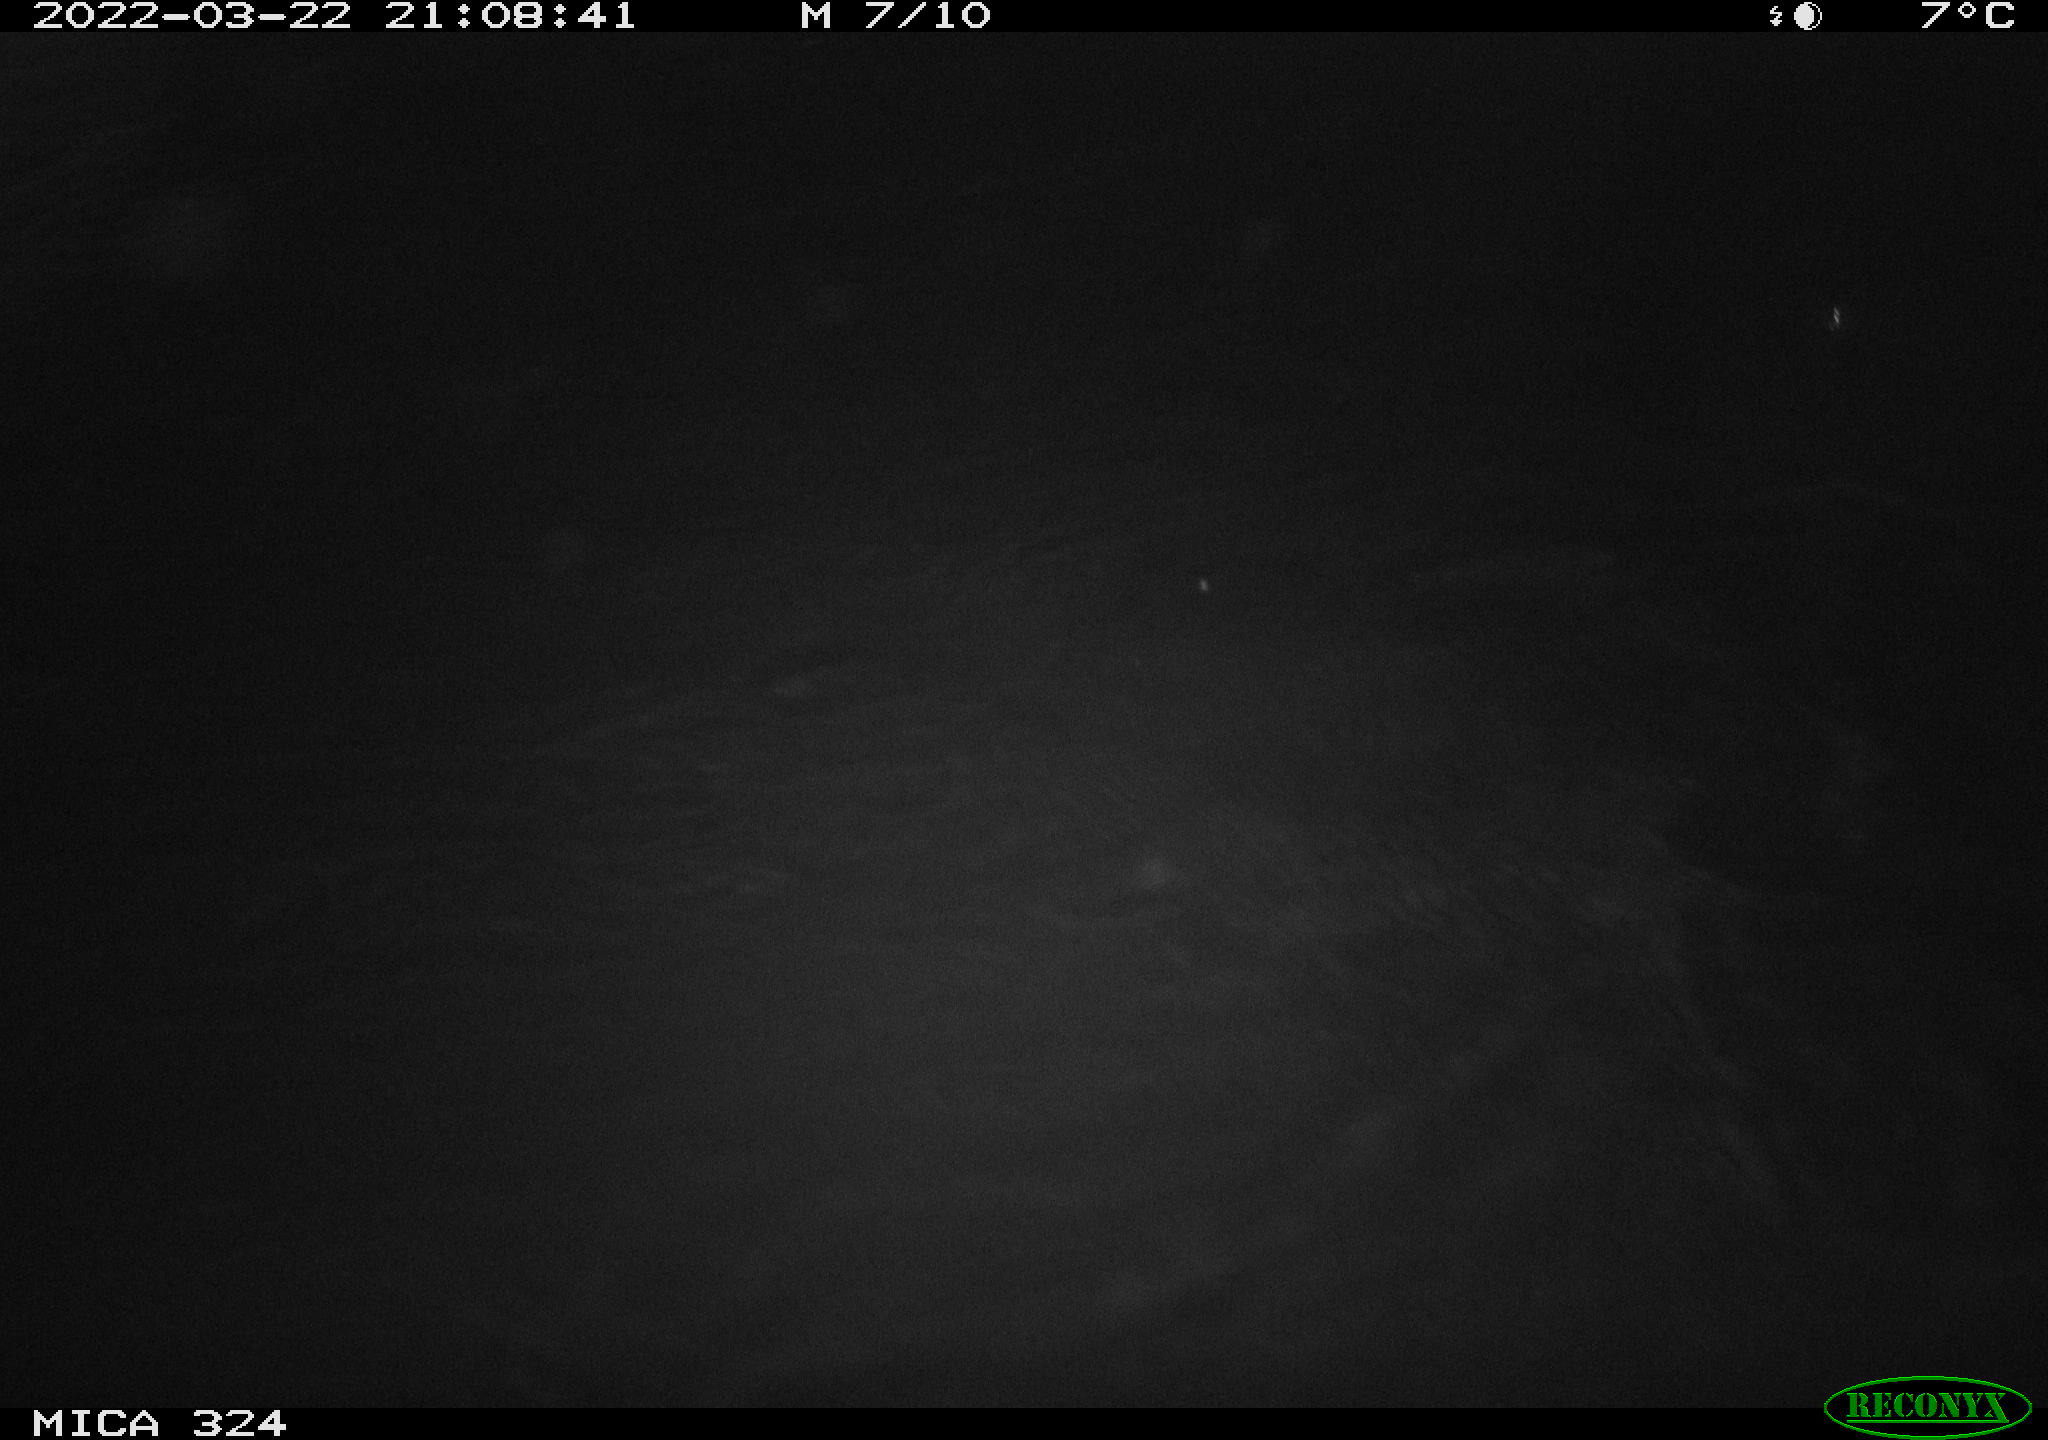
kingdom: Animalia
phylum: Chordata
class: Mammalia
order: Rodentia
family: Cricetidae
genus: Ondatra
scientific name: Ondatra zibethicus
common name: Muskrat
